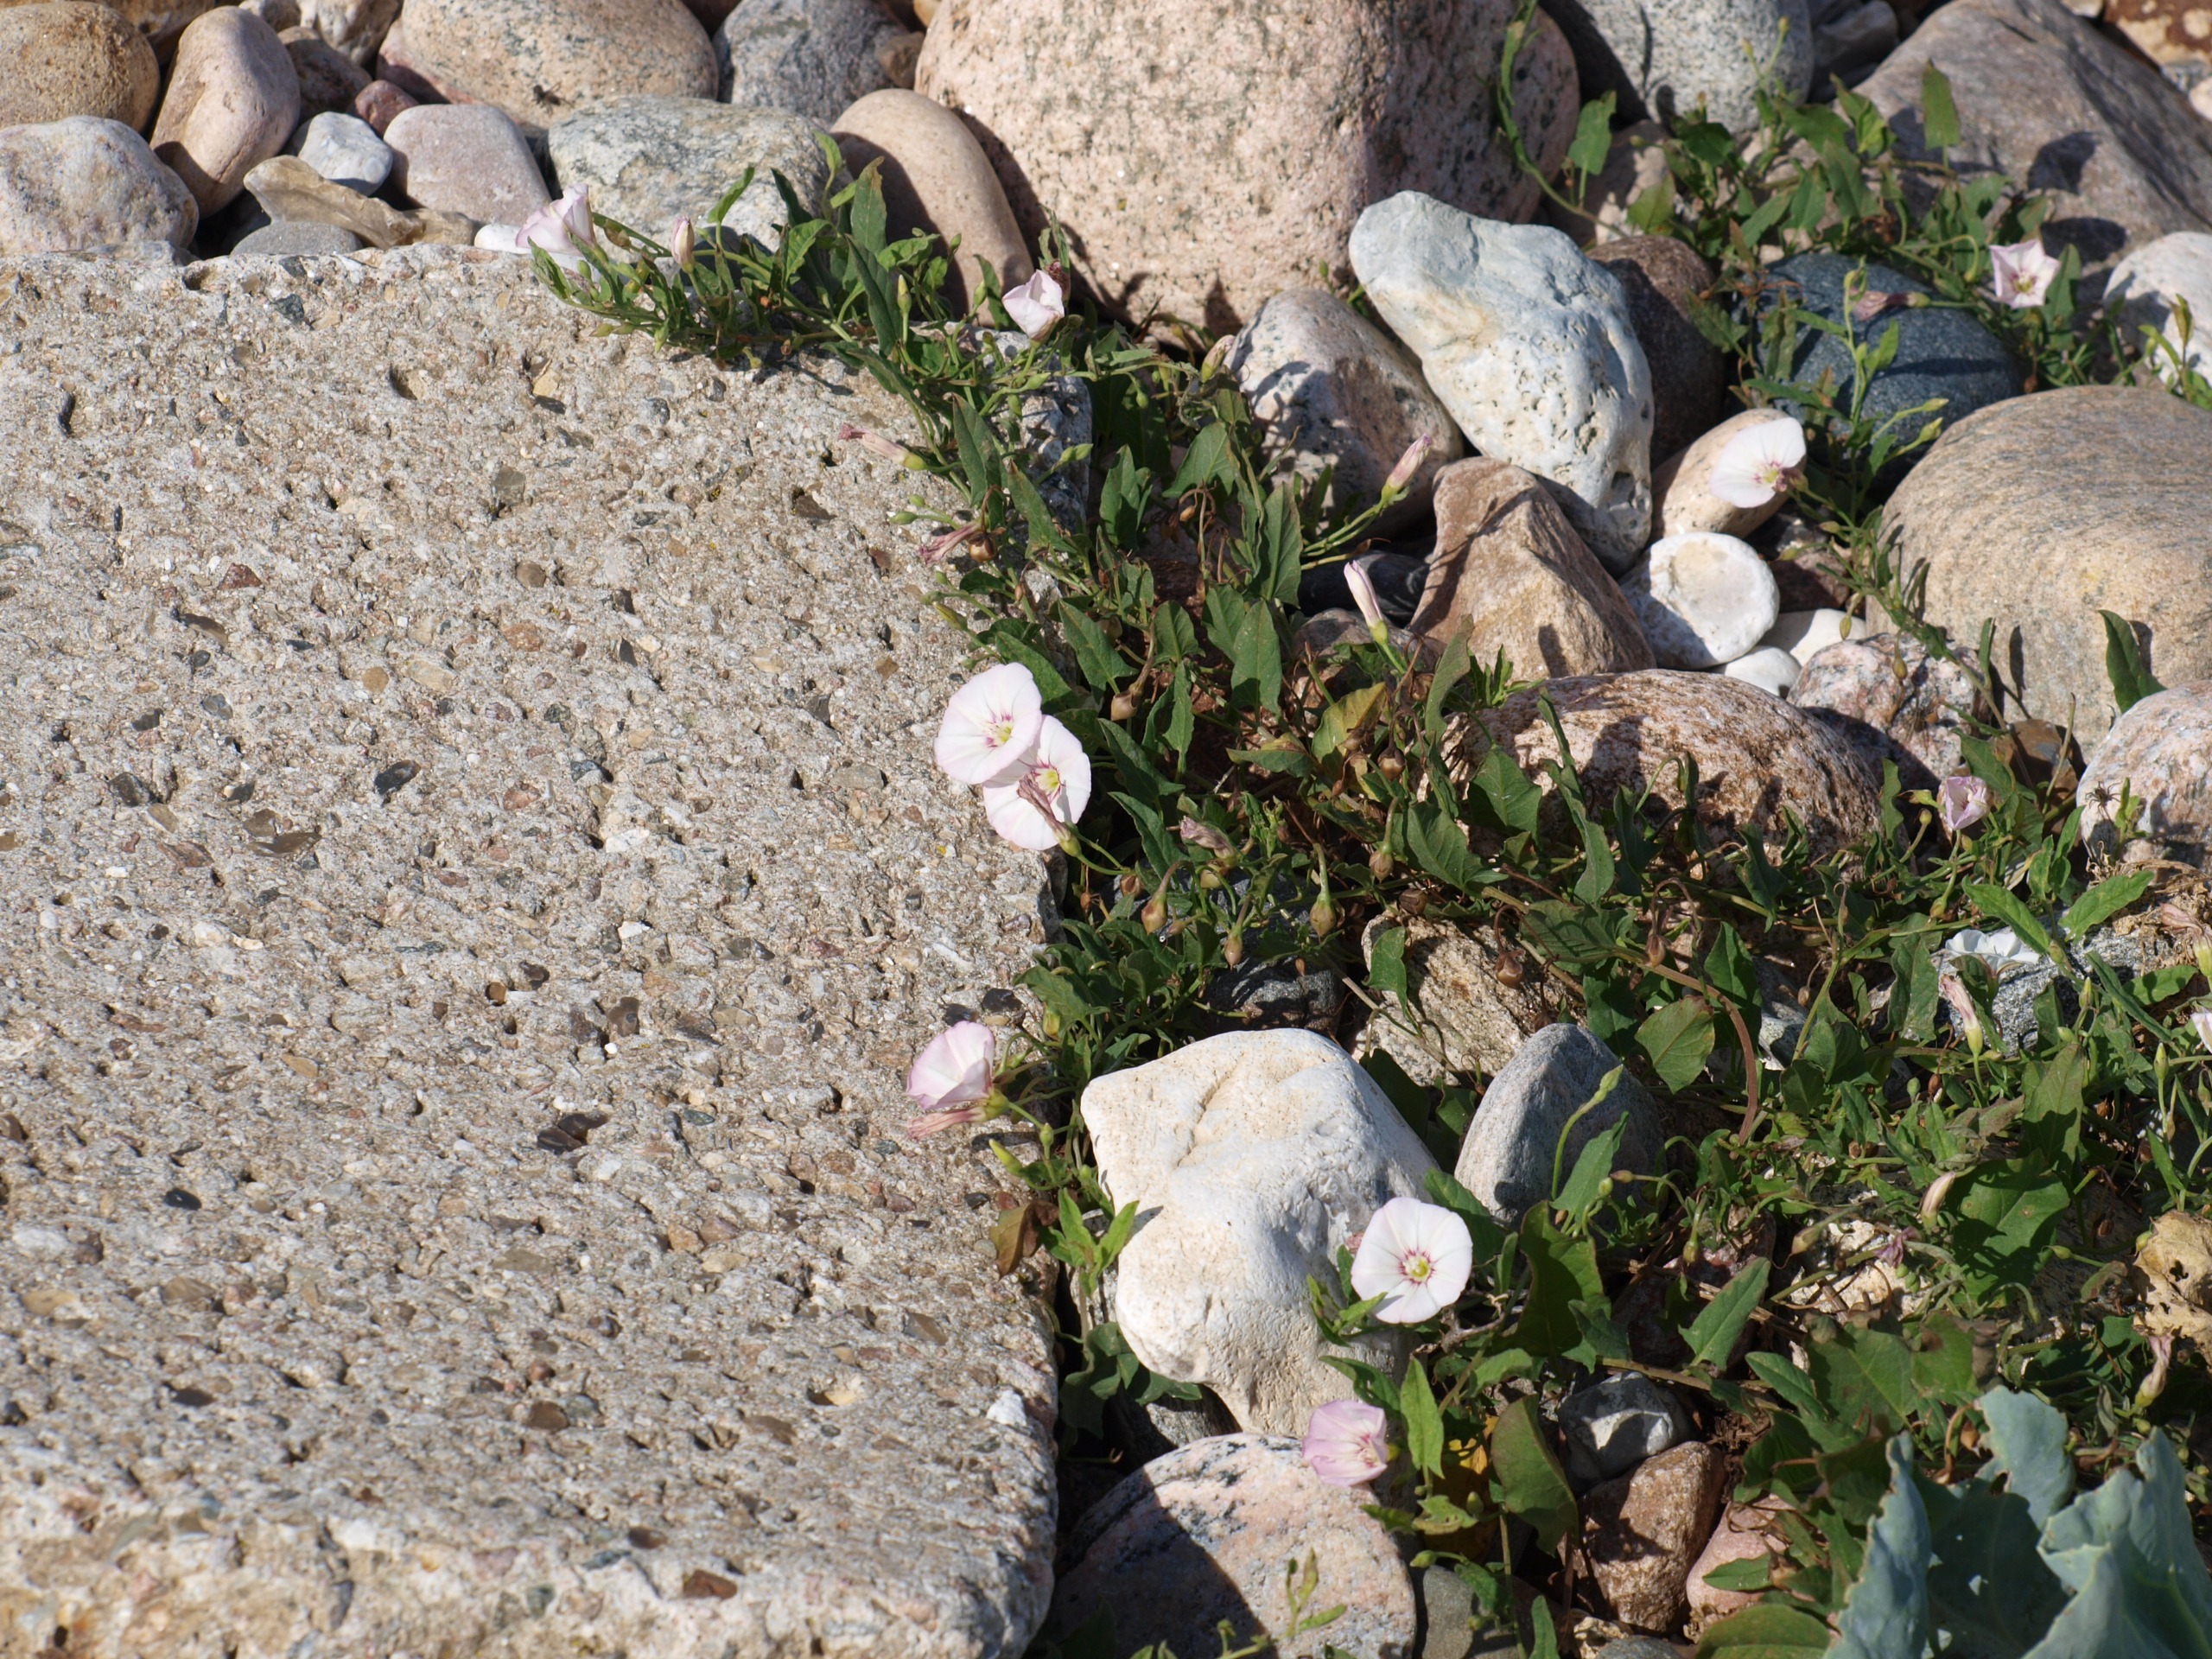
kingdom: Plantae
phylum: Tracheophyta
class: Magnoliopsida
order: Solanales
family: Convolvulaceae
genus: Convolvulus
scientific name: Convolvulus arvensis
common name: Ager-snerle
